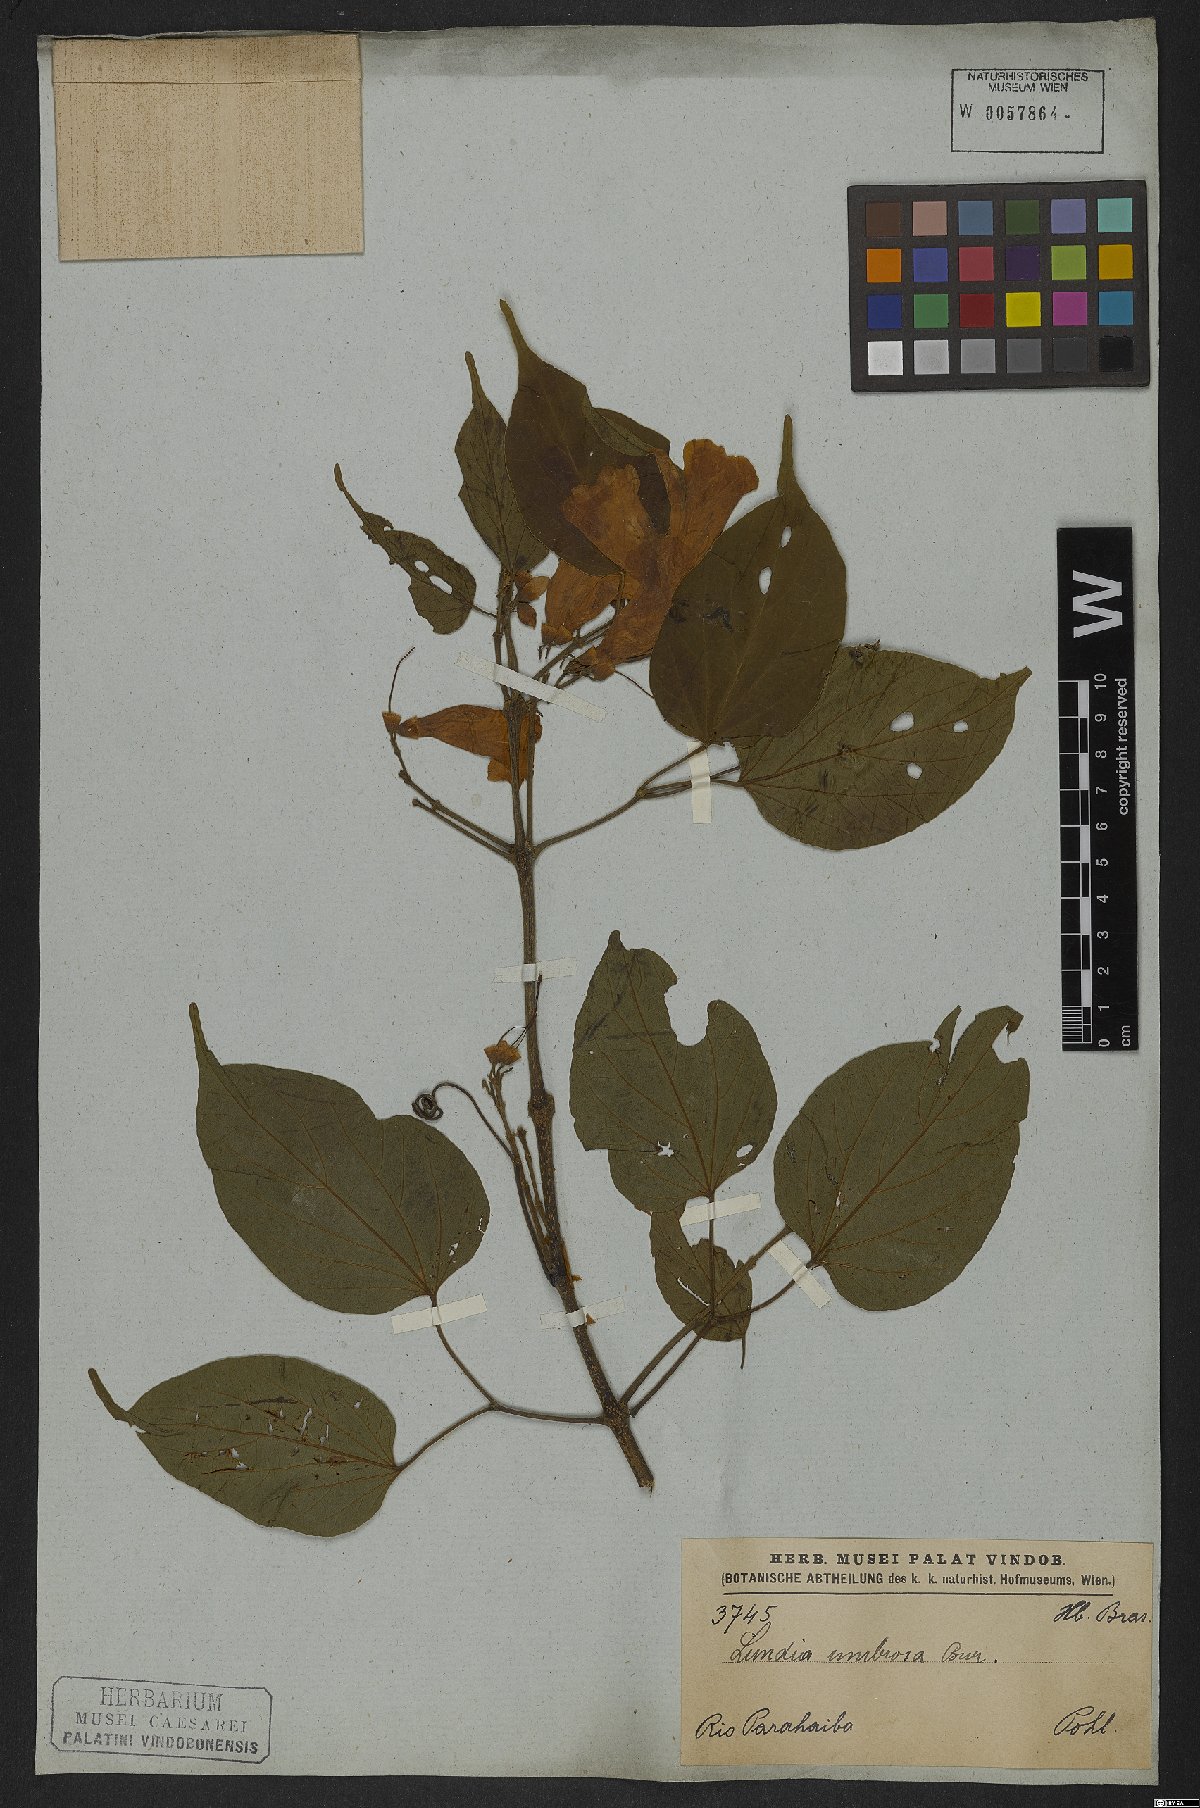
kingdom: Plantae
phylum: Tracheophyta
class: Magnoliopsida
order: Lamiales
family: Bignoniaceae
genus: Lundia
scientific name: Lundia corymbifera
